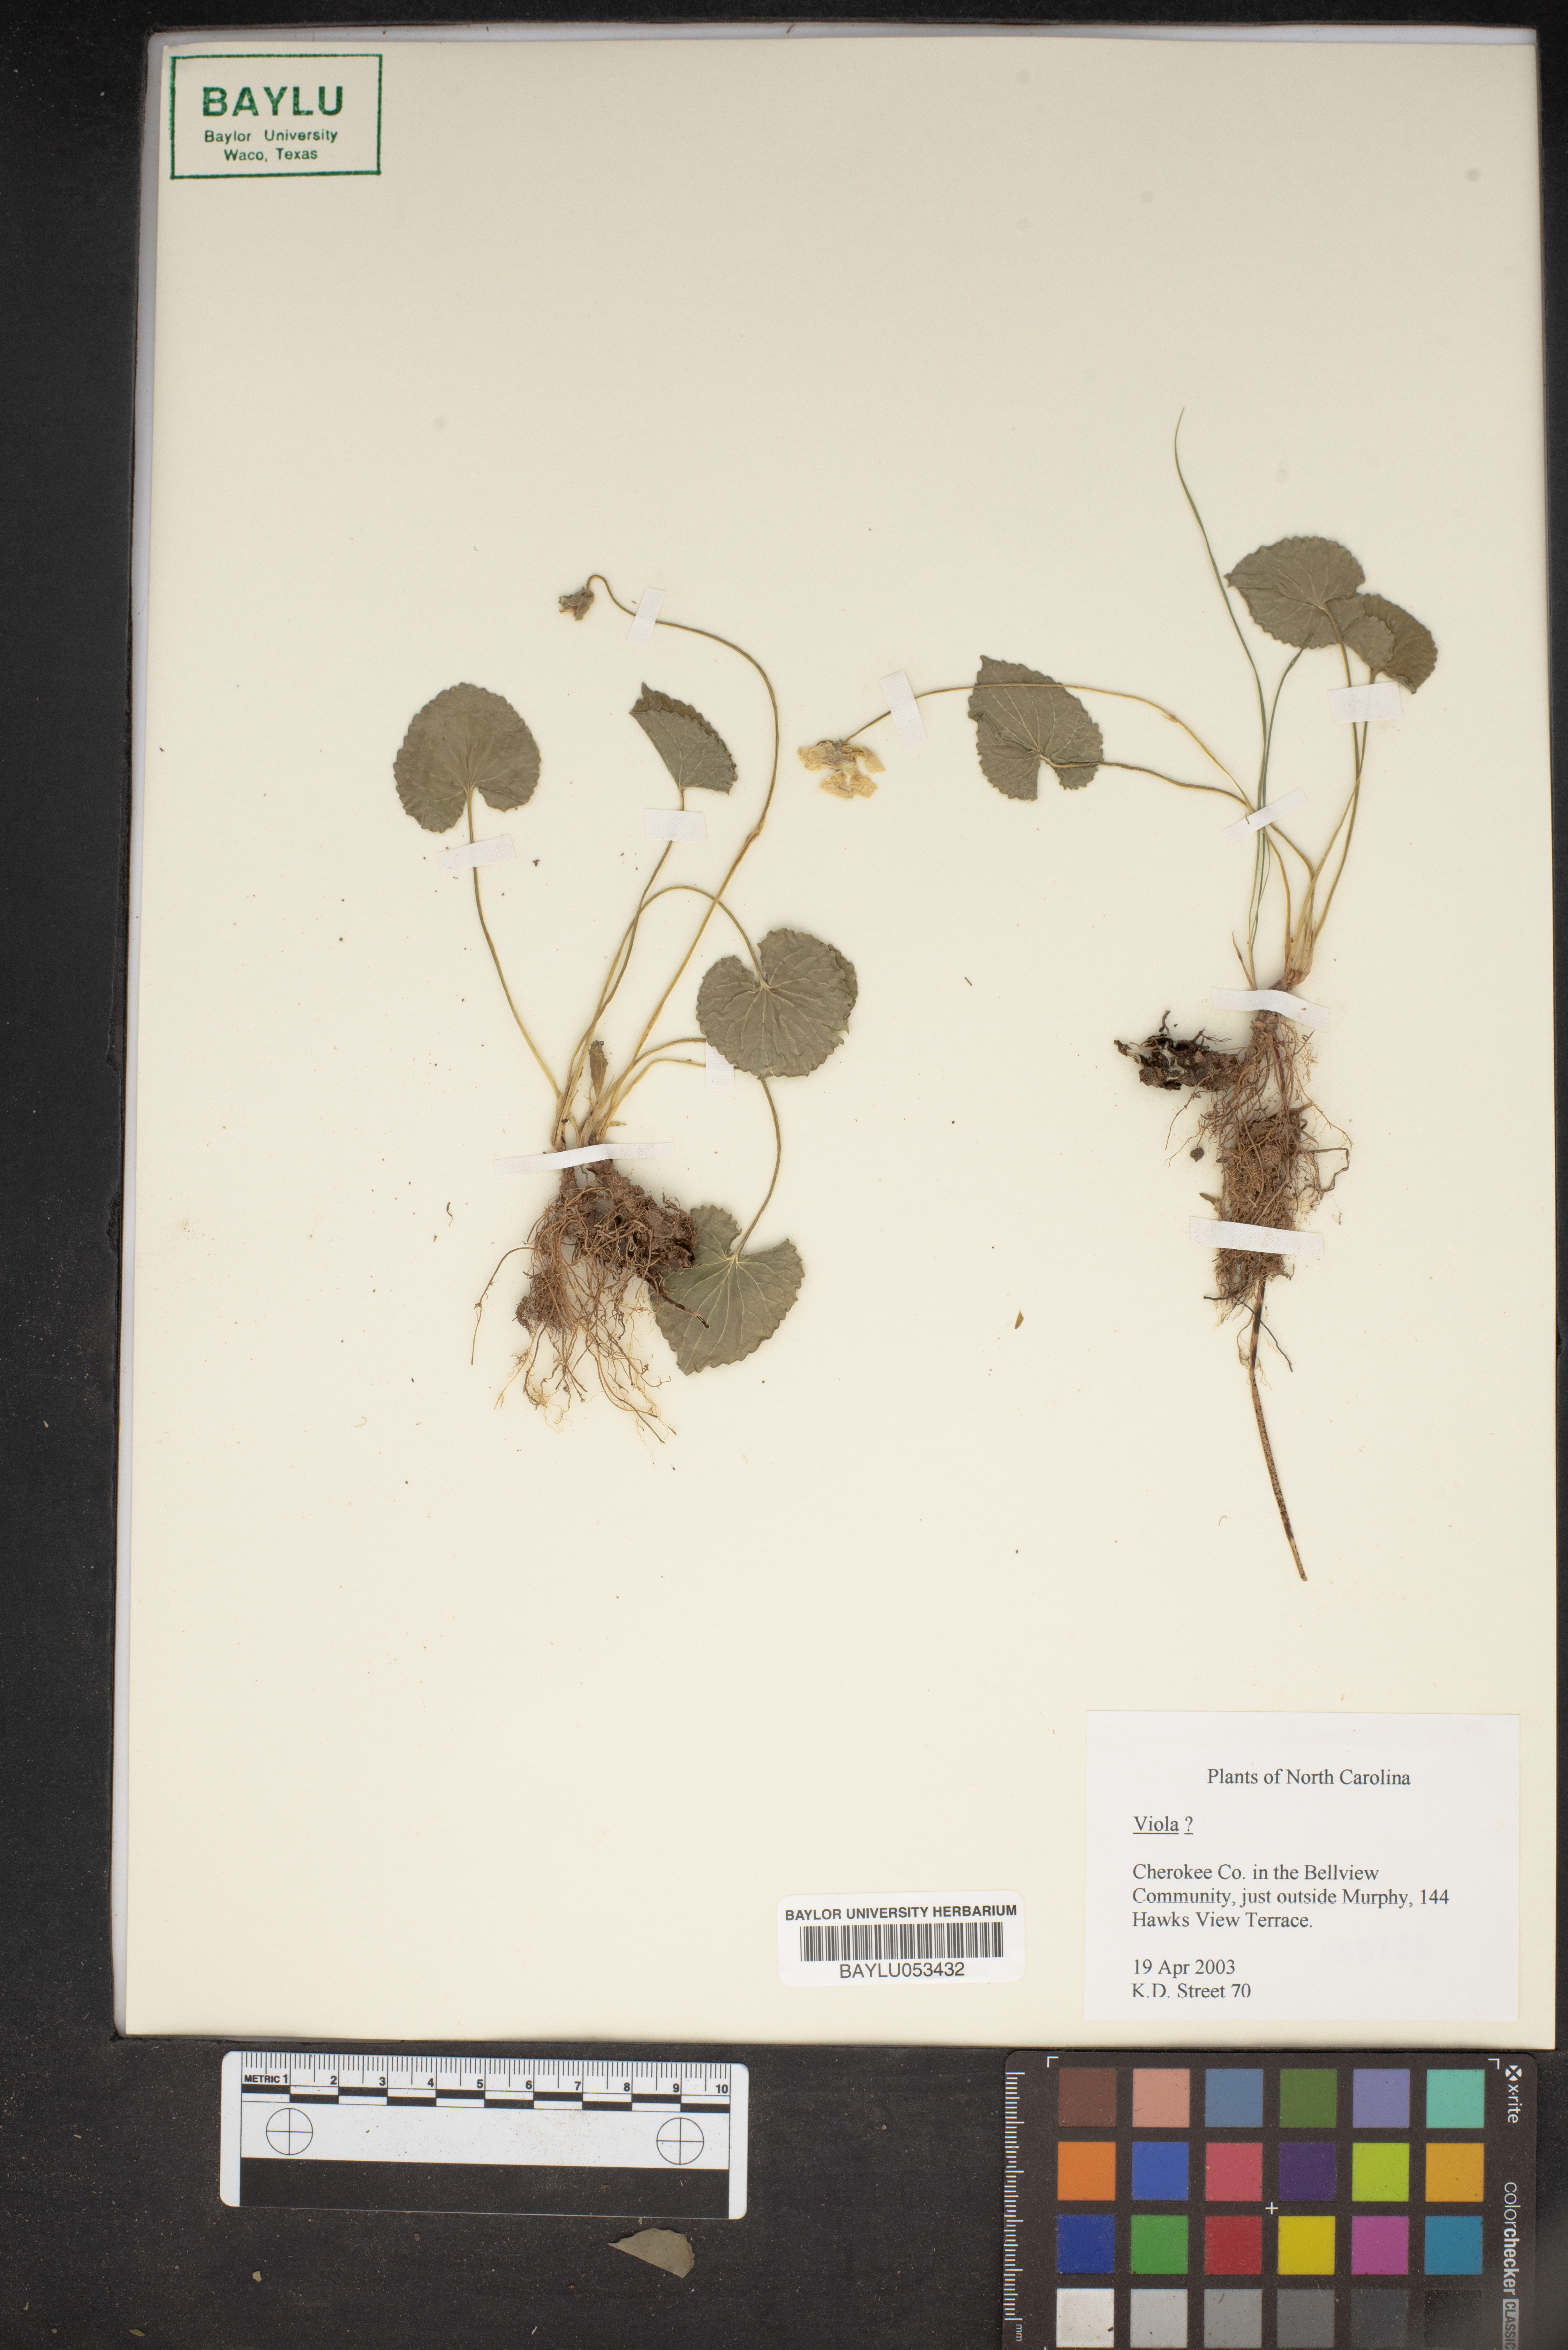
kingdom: Plantae
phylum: Tracheophyta
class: Magnoliopsida
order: Malpighiales
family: Violaceae
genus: Viola
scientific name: Viola
